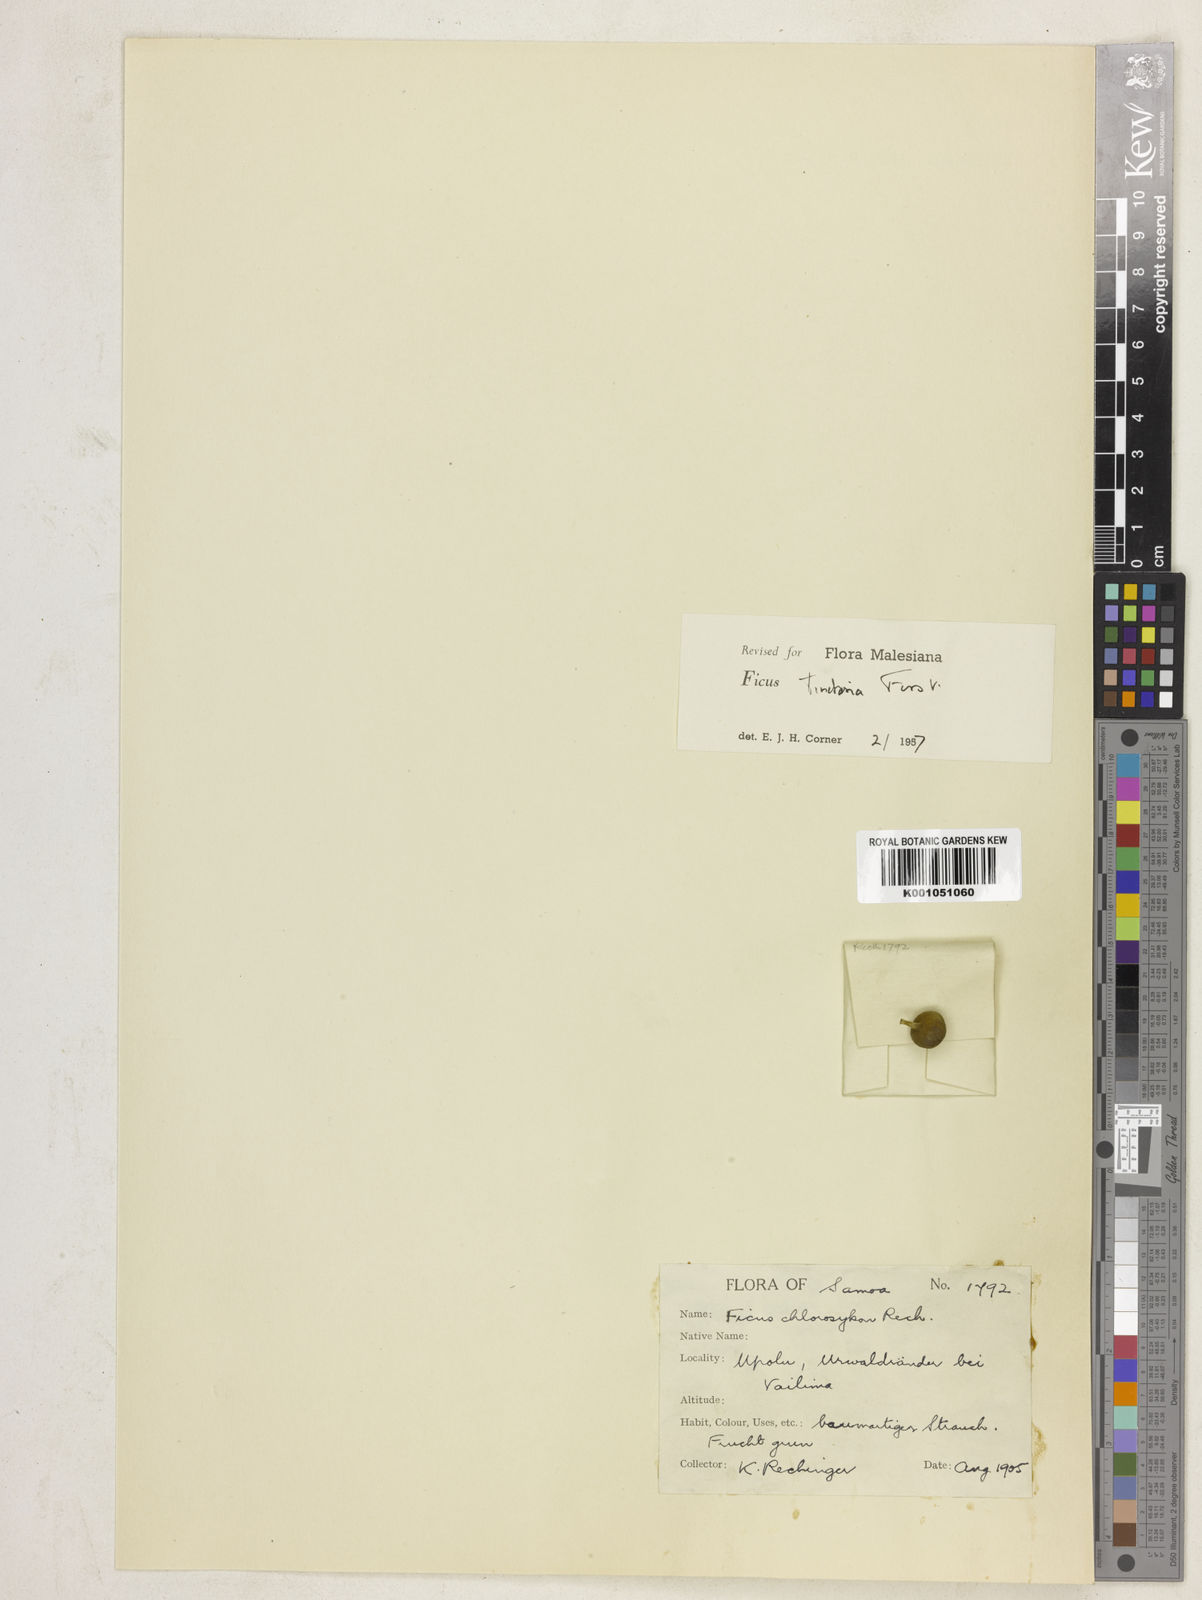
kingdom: Plantae
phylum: Tracheophyta
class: Magnoliopsida
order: Rosales
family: Moraceae
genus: Ficus
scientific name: Ficus tinctoria
